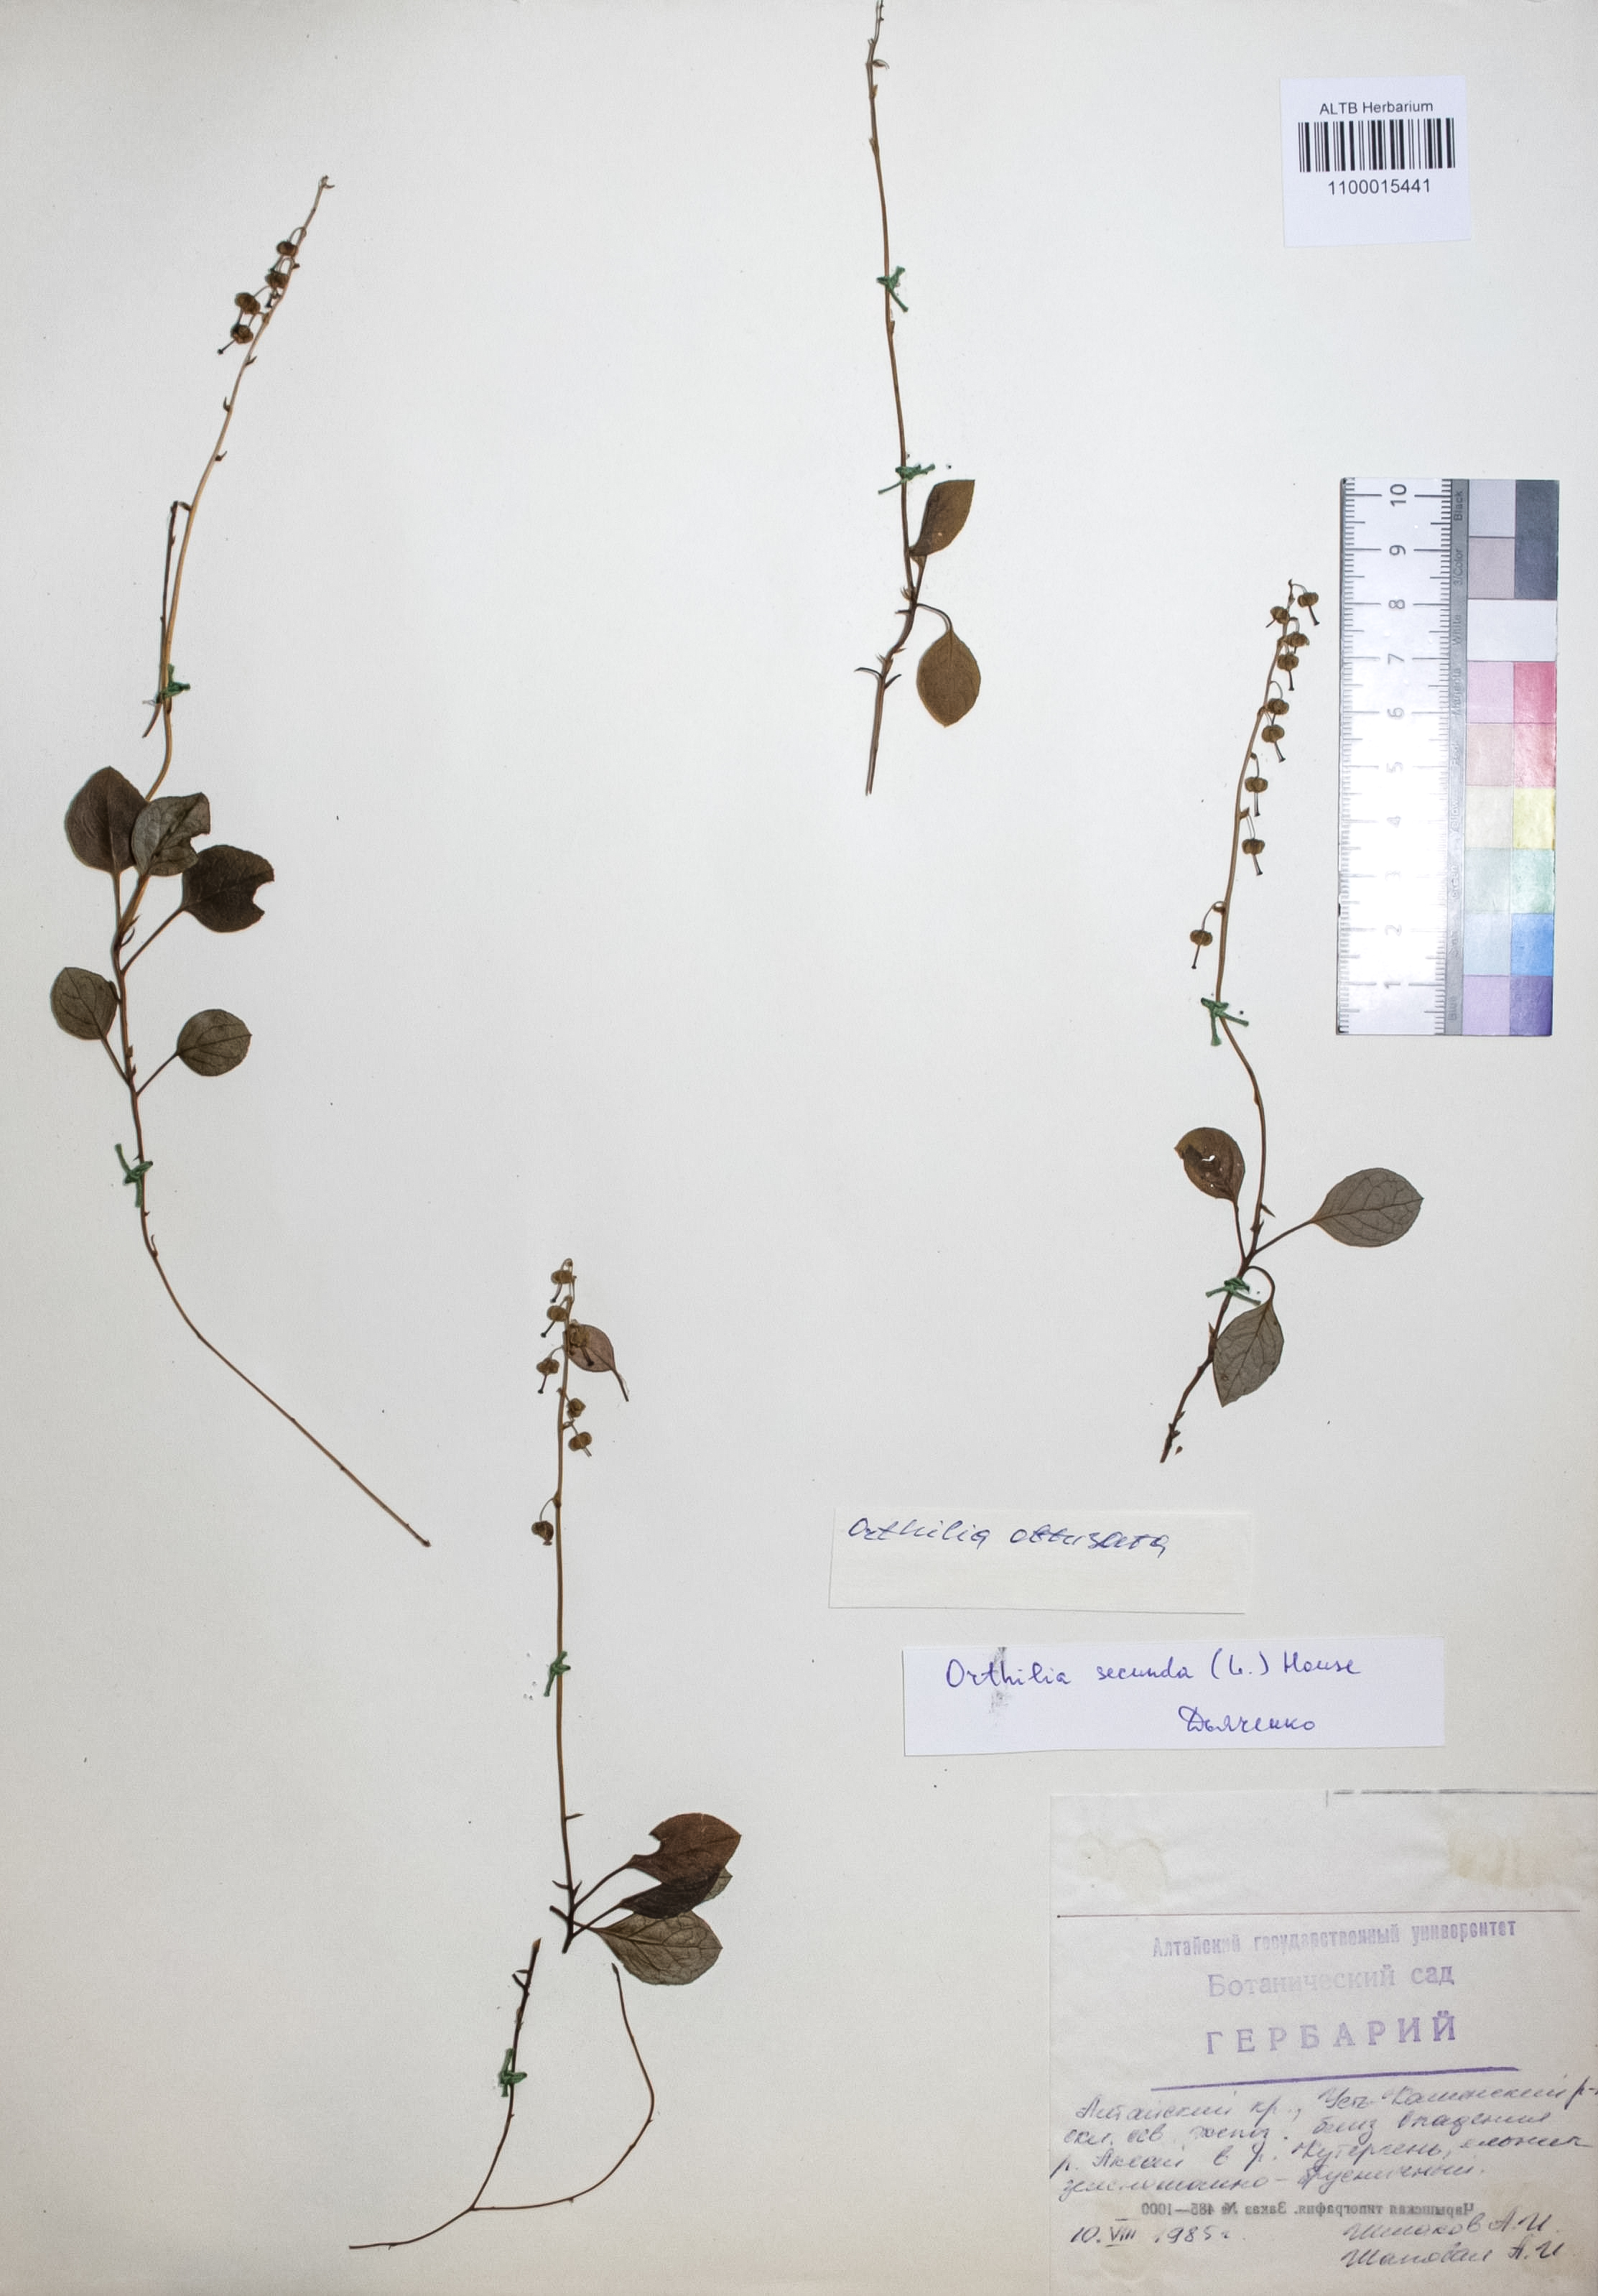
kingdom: Plantae
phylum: Tracheophyta
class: Magnoliopsida
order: Ericales
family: Ericaceae
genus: Orthilia
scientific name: Orthilia secunda
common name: One-sided orthilia
